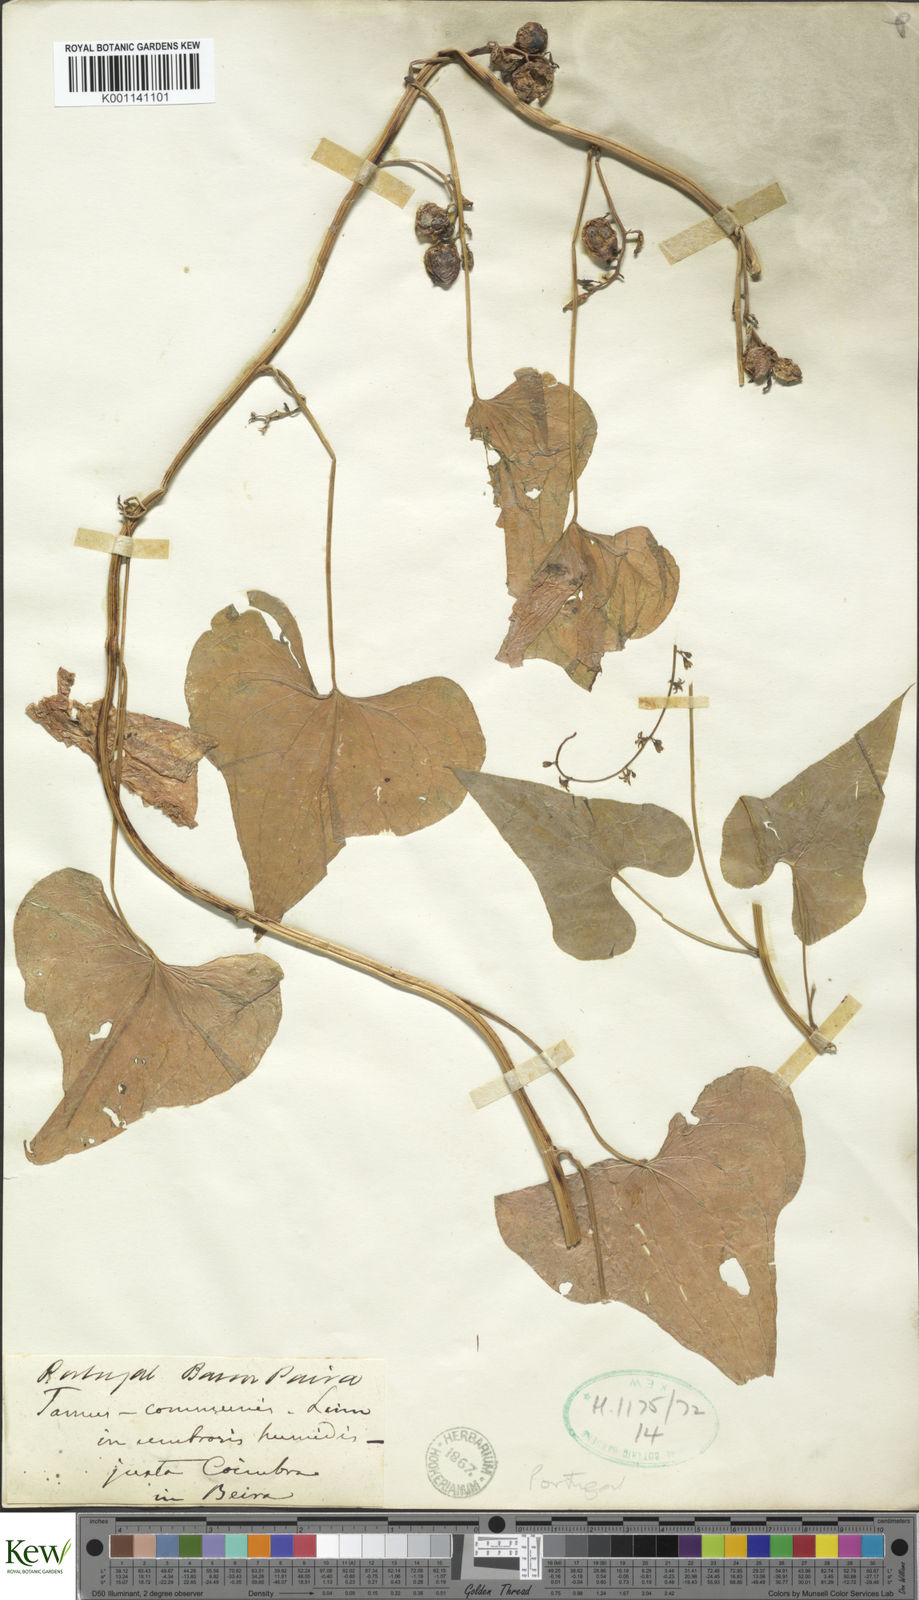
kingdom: Plantae
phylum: Tracheophyta
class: Liliopsida
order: Dioscoreales
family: Dioscoreaceae
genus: Dioscorea
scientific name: Dioscorea communis
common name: Black-bindweed
